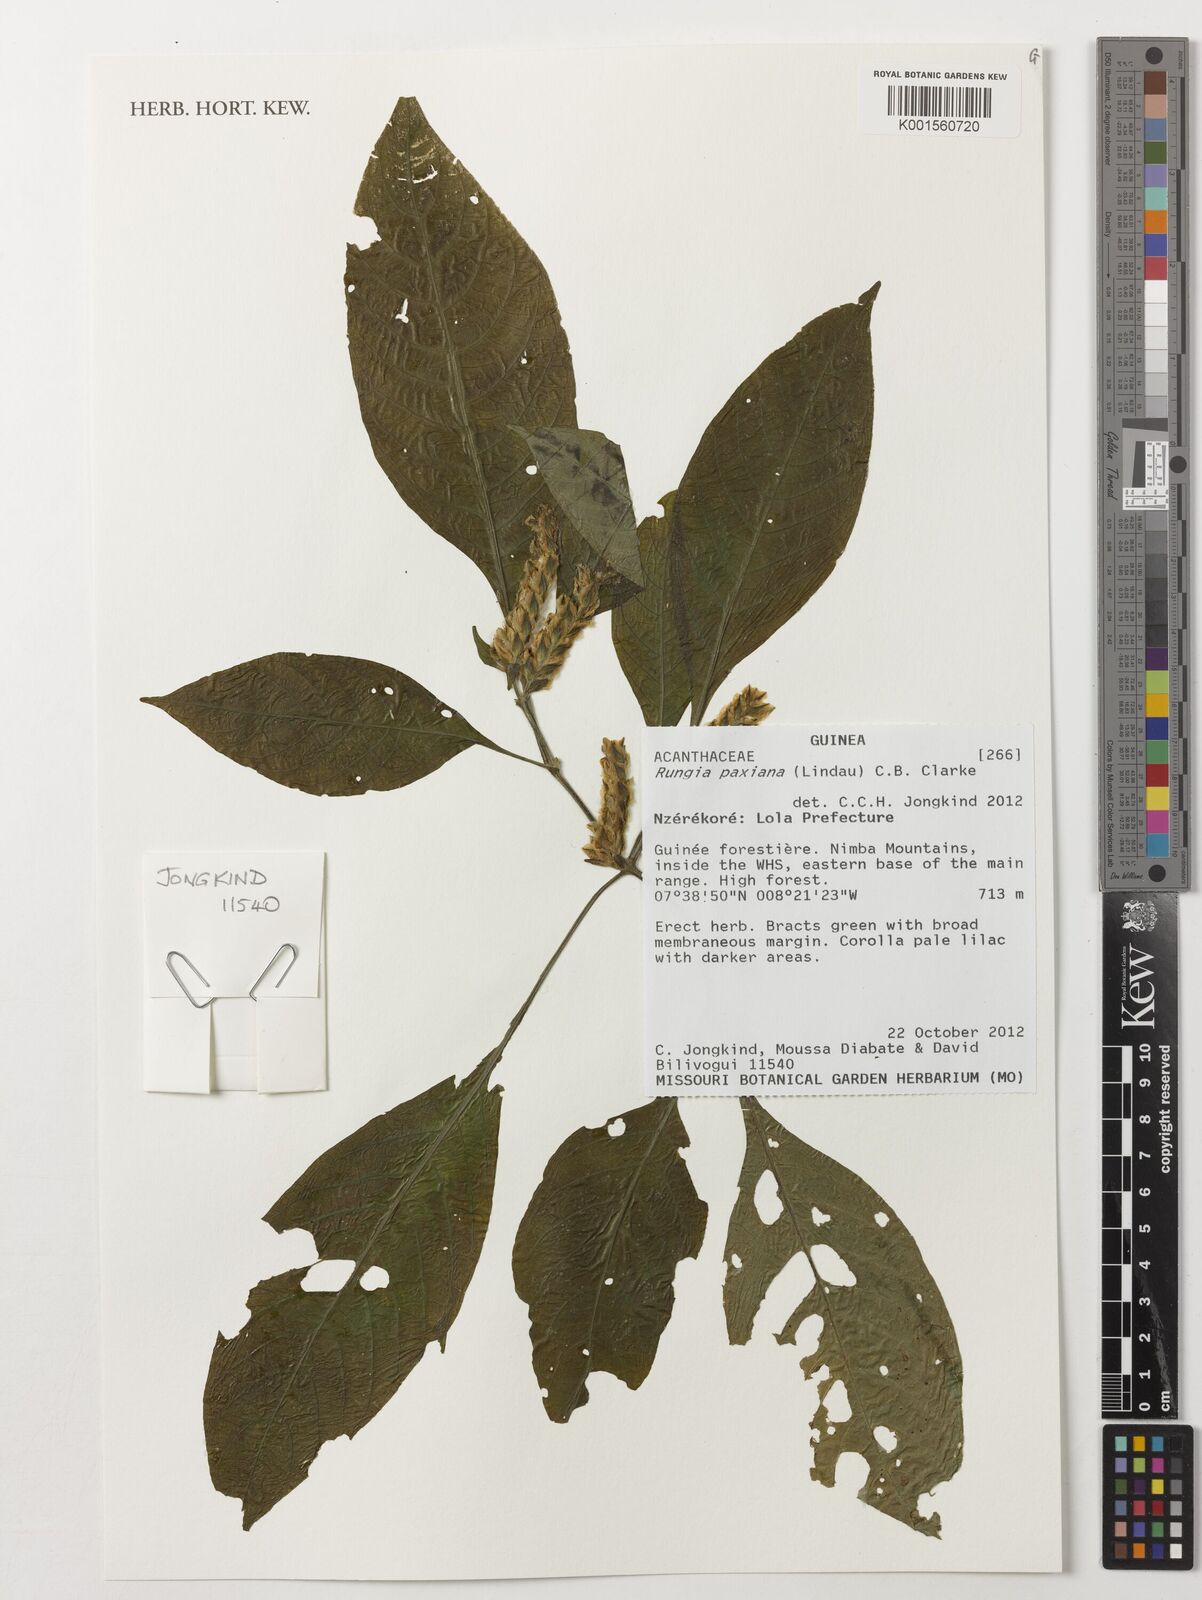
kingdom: Plantae
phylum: Tracheophyta
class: Magnoliopsida
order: Lamiales
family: Acanthaceae
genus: Rungia
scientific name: Rungia paxiana
